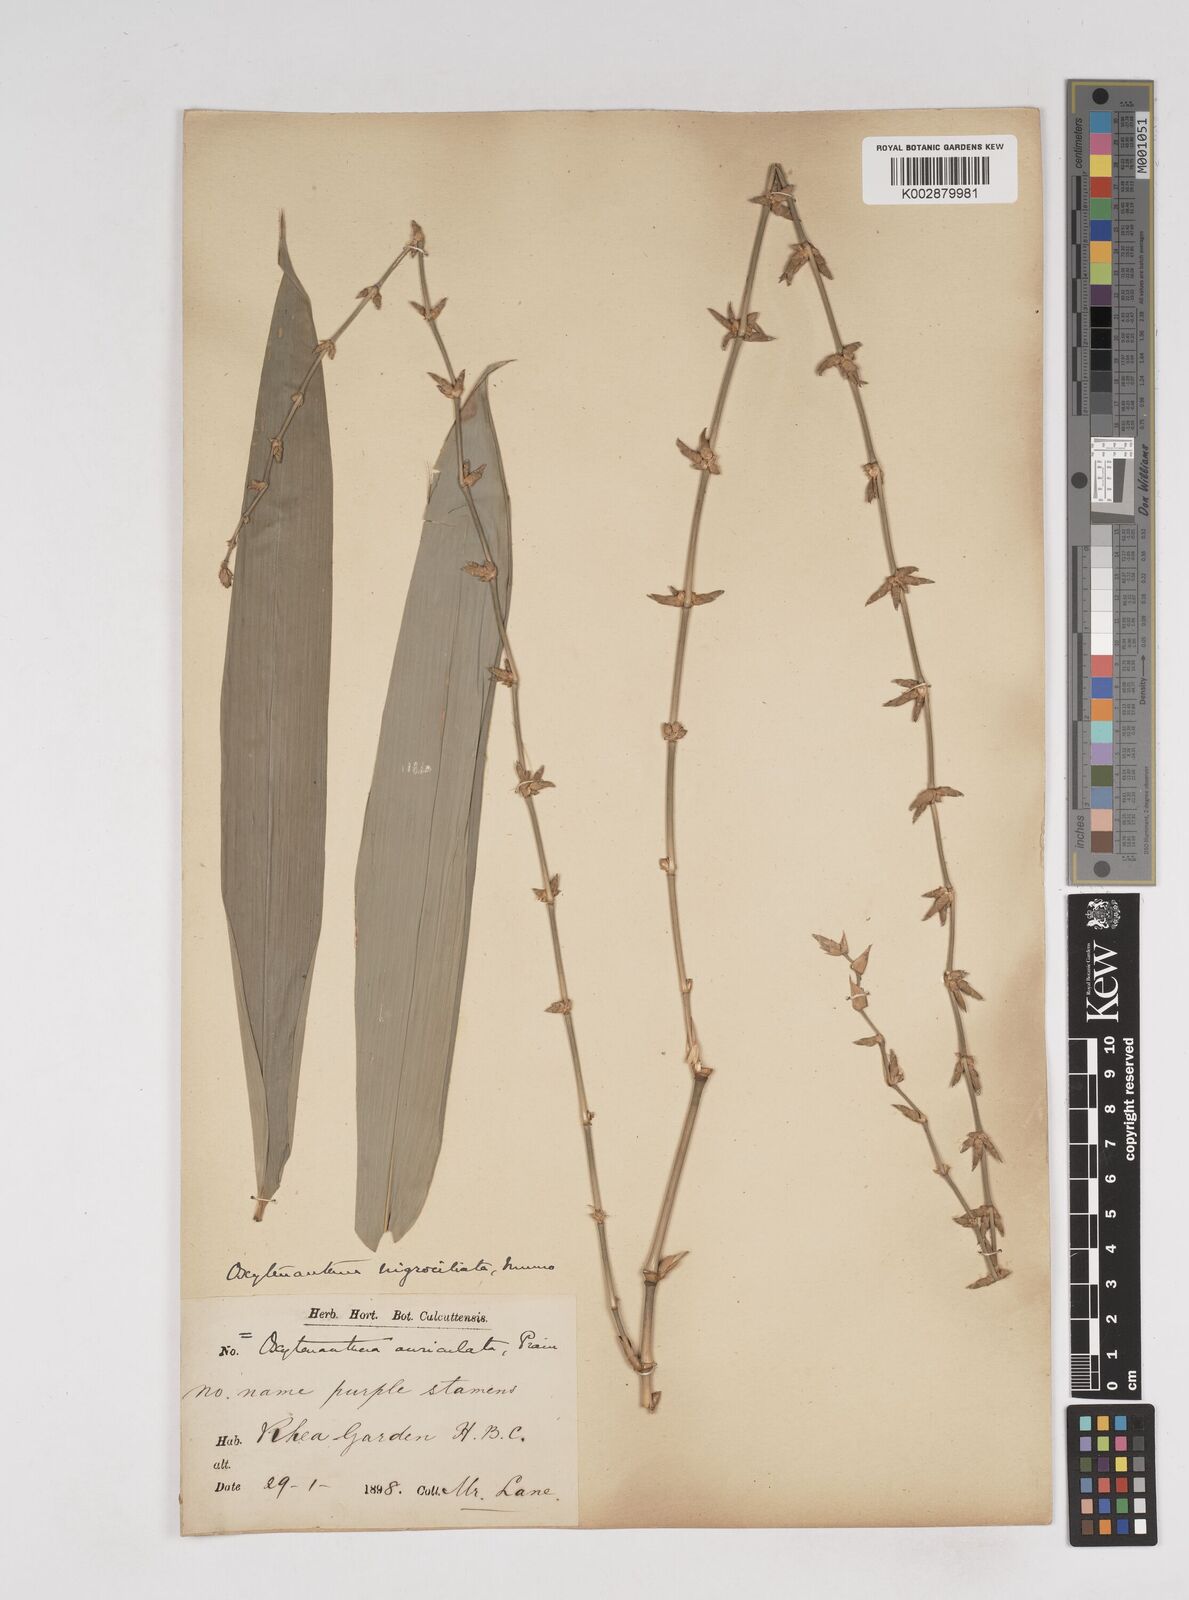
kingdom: Plantae
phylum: Tracheophyta
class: Liliopsida
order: Poales
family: Poaceae
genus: Gigantochloa
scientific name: Gigantochloa nigrociliata
